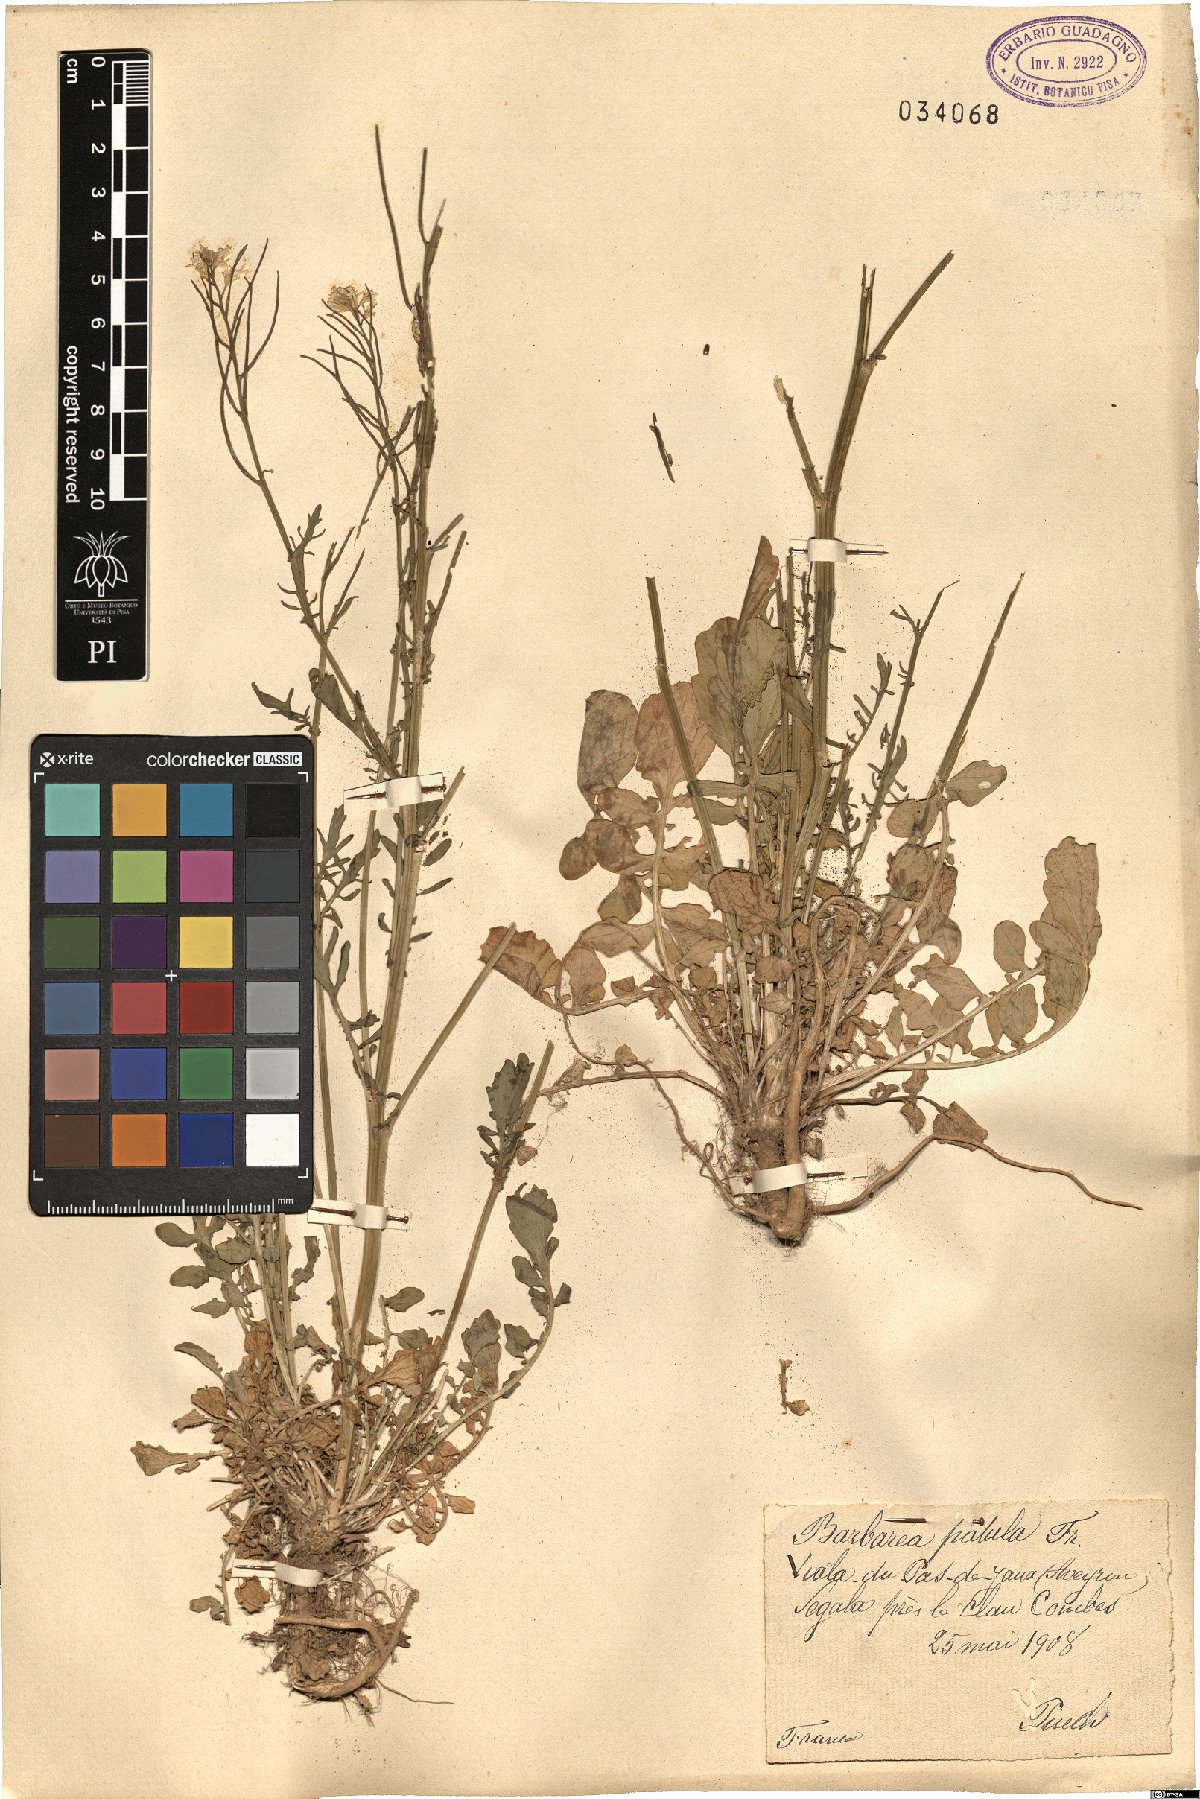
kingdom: Plantae
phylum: Tracheophyta
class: Magnoliopsida
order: Brassicales
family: Brassicaceae
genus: Barbarea
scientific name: Barbarea verna
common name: American cress
